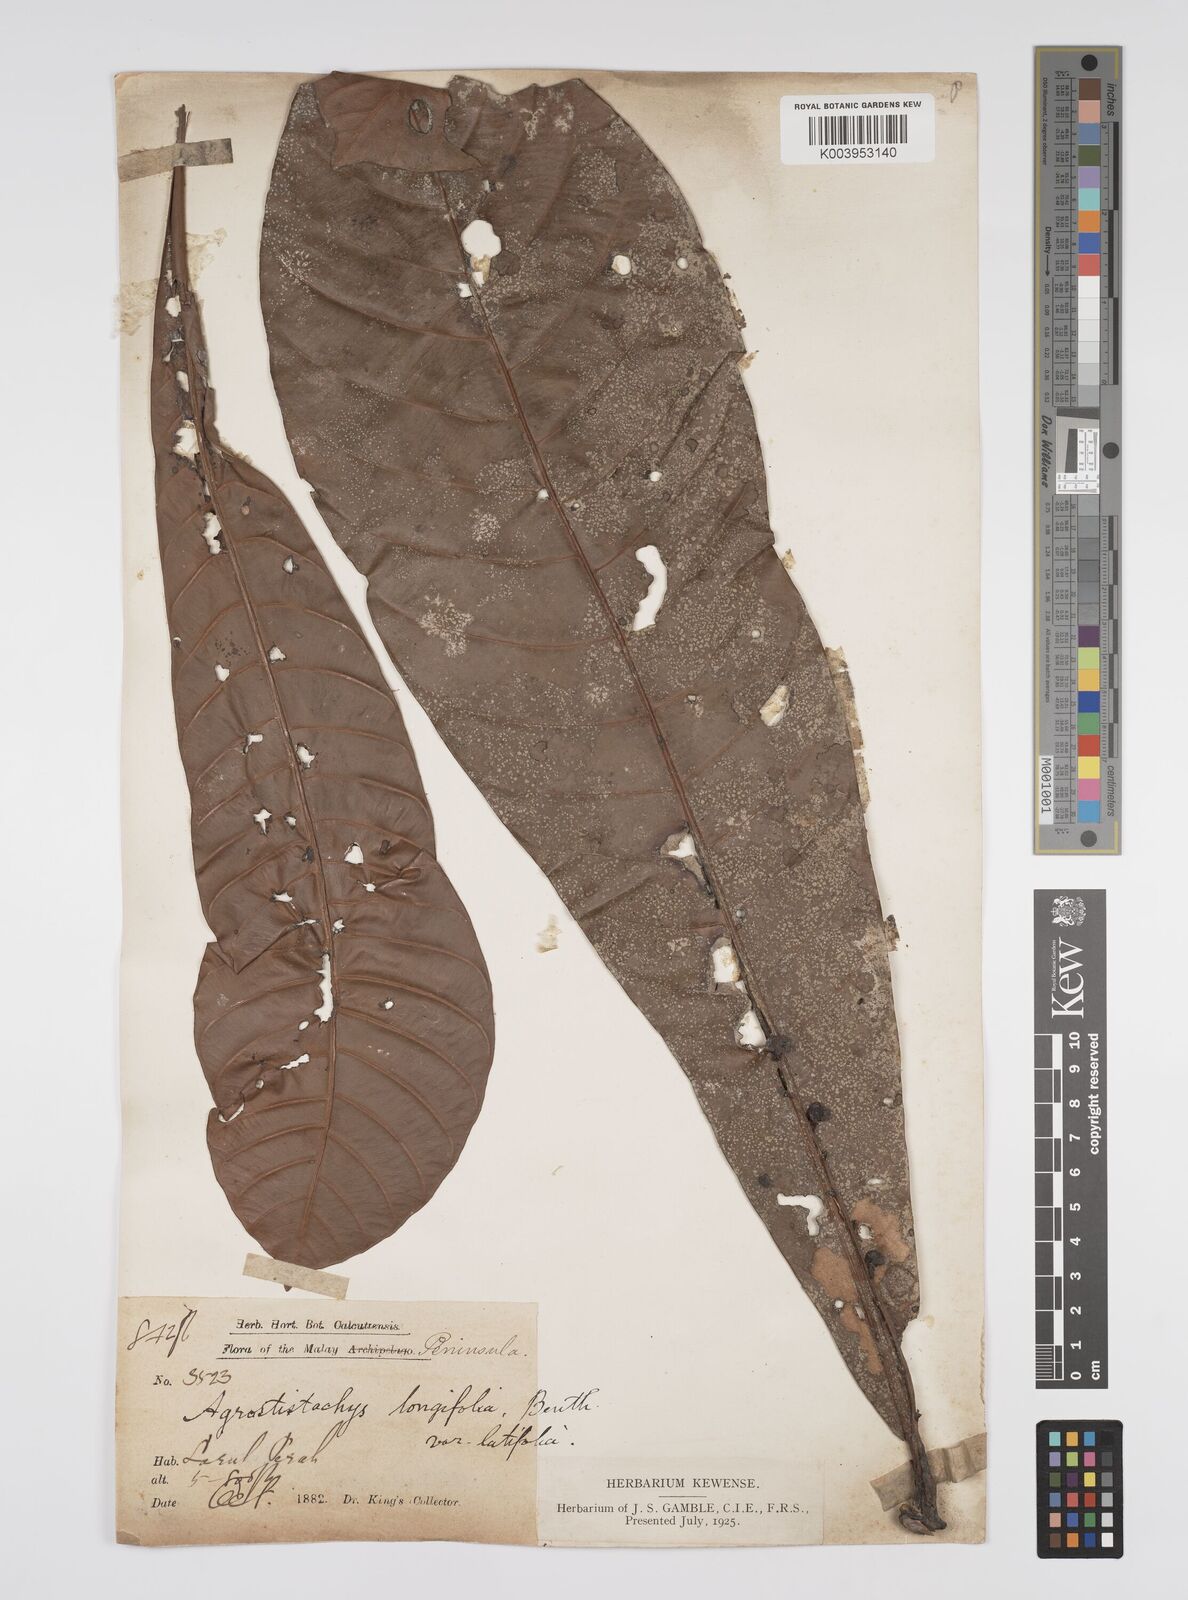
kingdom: Plantae
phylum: Tracheophyta
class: Magnoliopsida
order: Malpighiales
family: Euphorbiaceae
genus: Agrostistachys
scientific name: Agrostistachys borneensis
